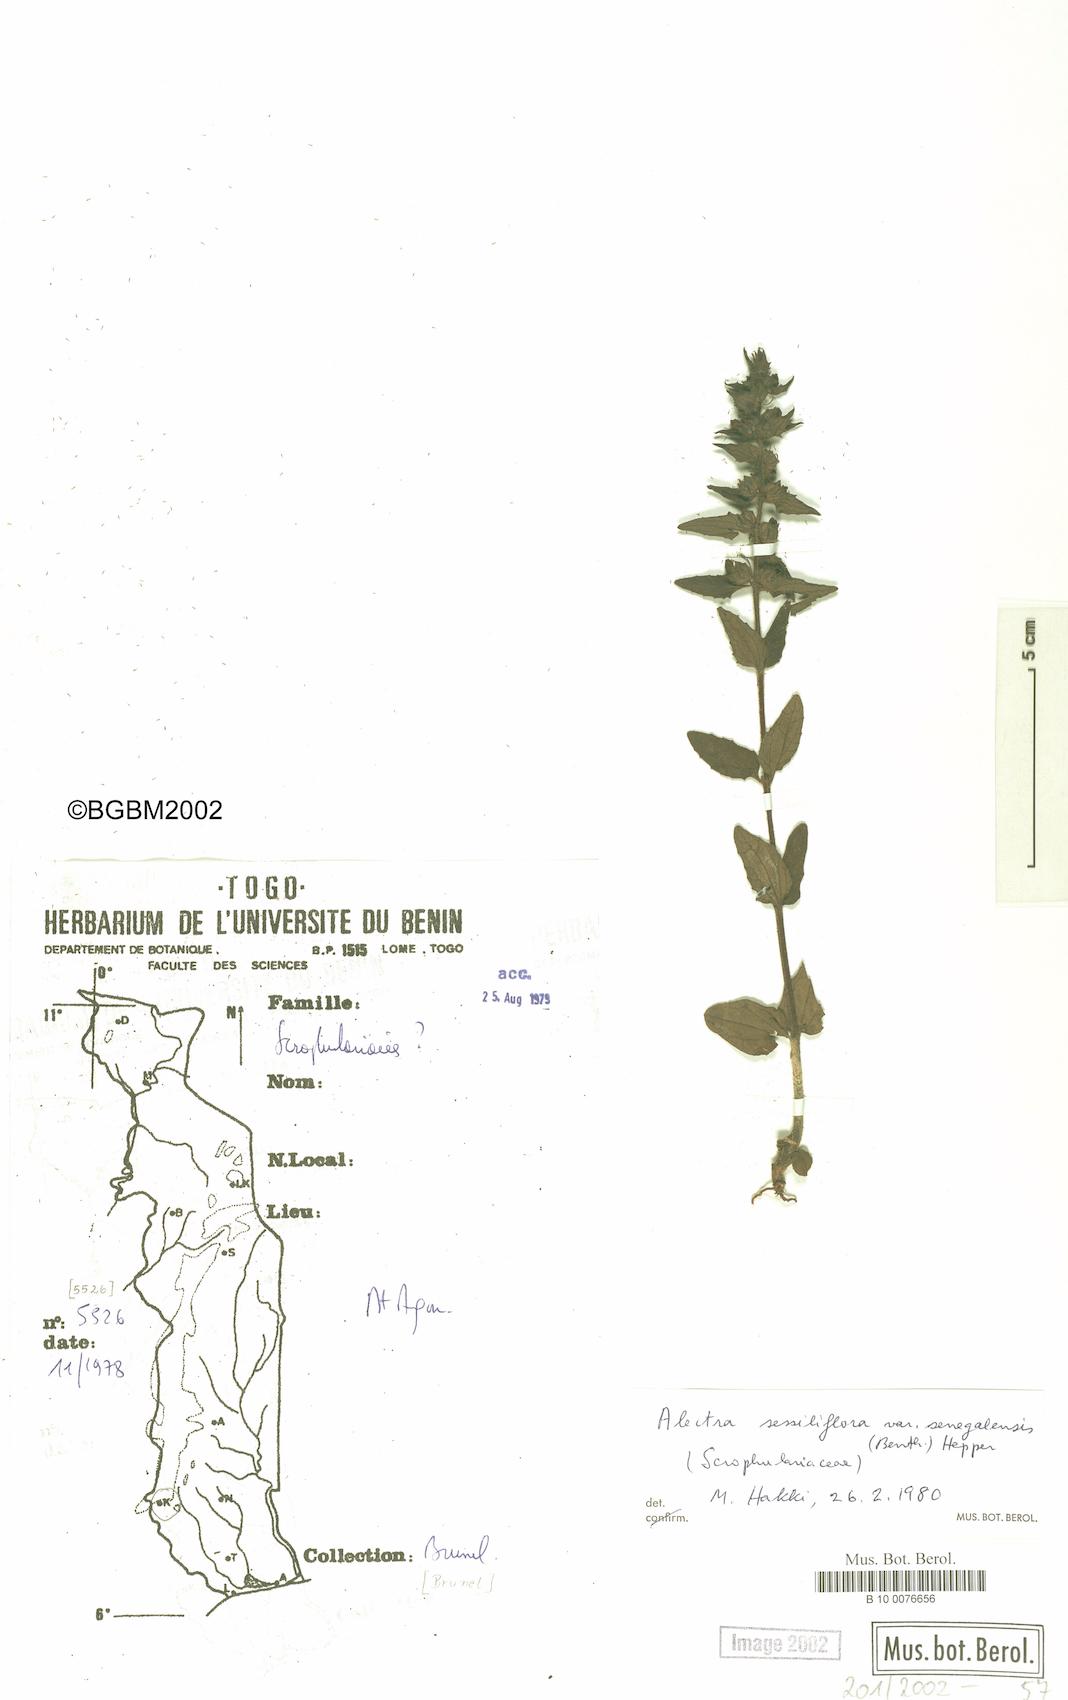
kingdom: Plantae
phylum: Tracheophyta
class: Magnoliopsida
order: Lamiales
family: Orobanchaceae
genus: Alectra
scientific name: Alectra sessiliflora
